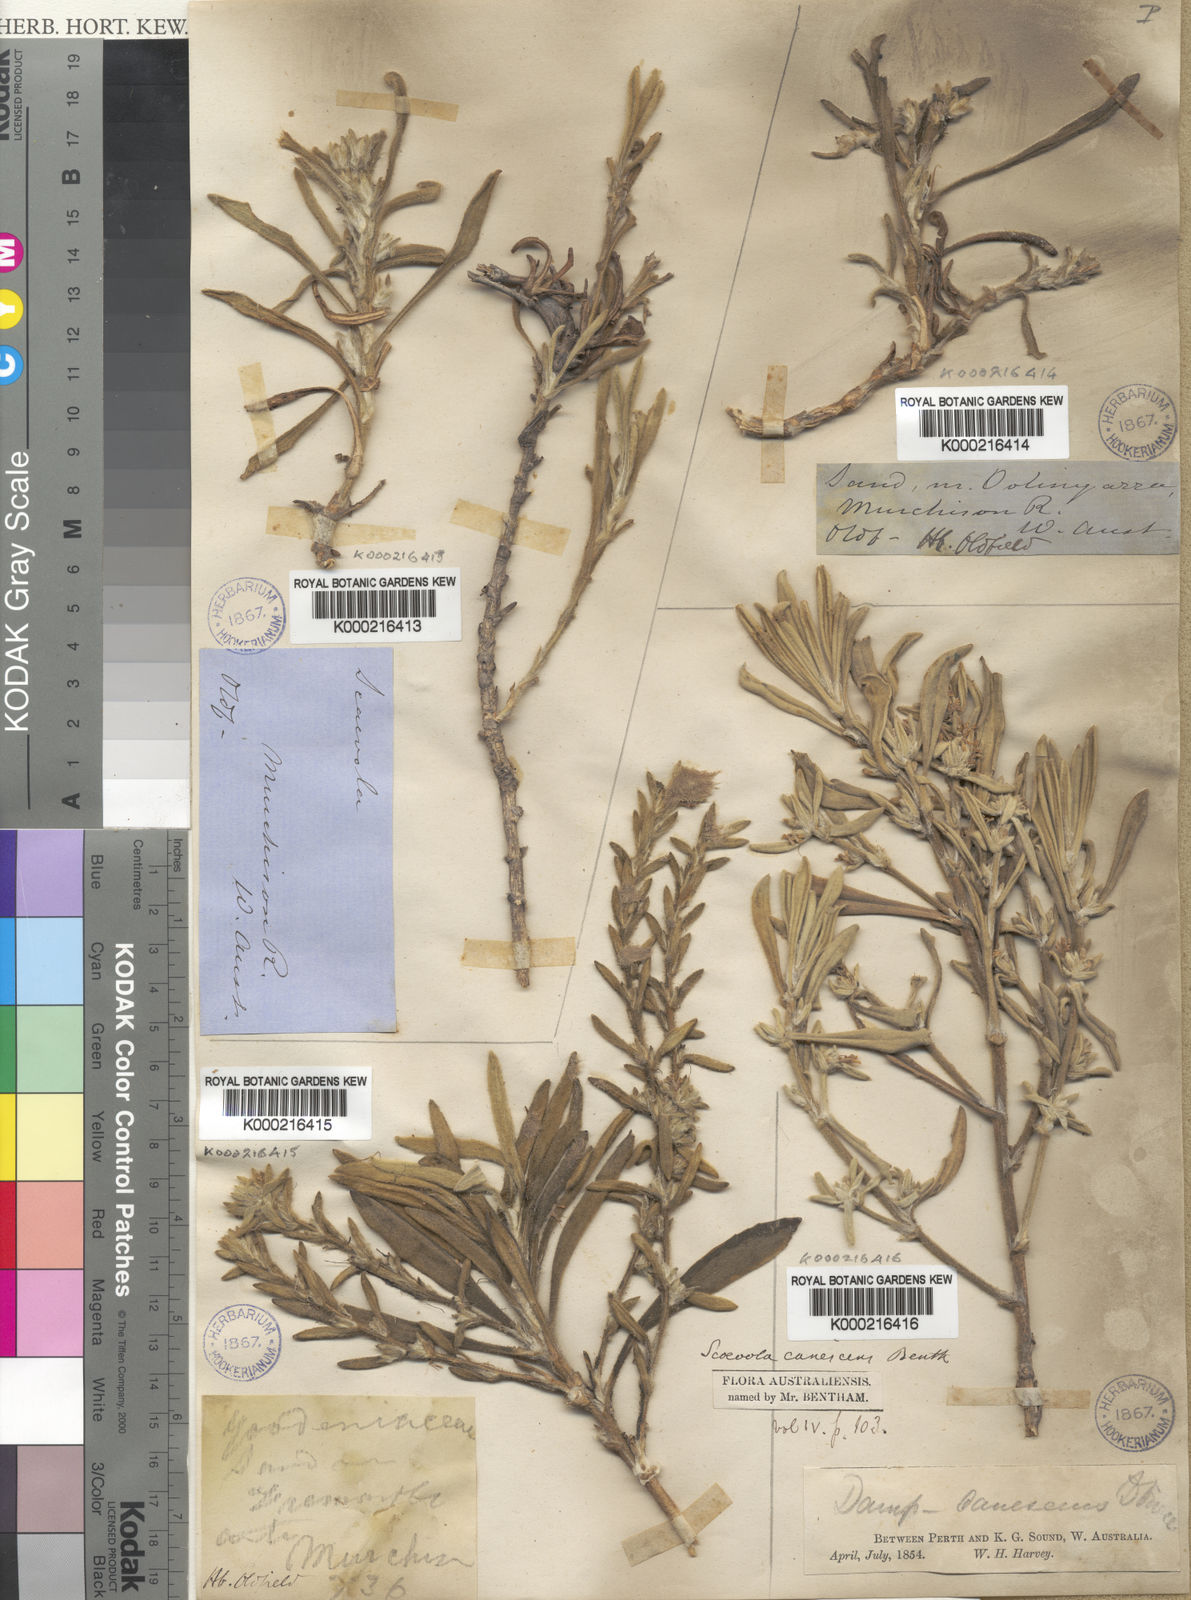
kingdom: Plantae
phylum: Tracheophyta
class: Magnoliopsida
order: Asterales
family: Goodeniaceae
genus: Scaevola
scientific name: Scaevola
